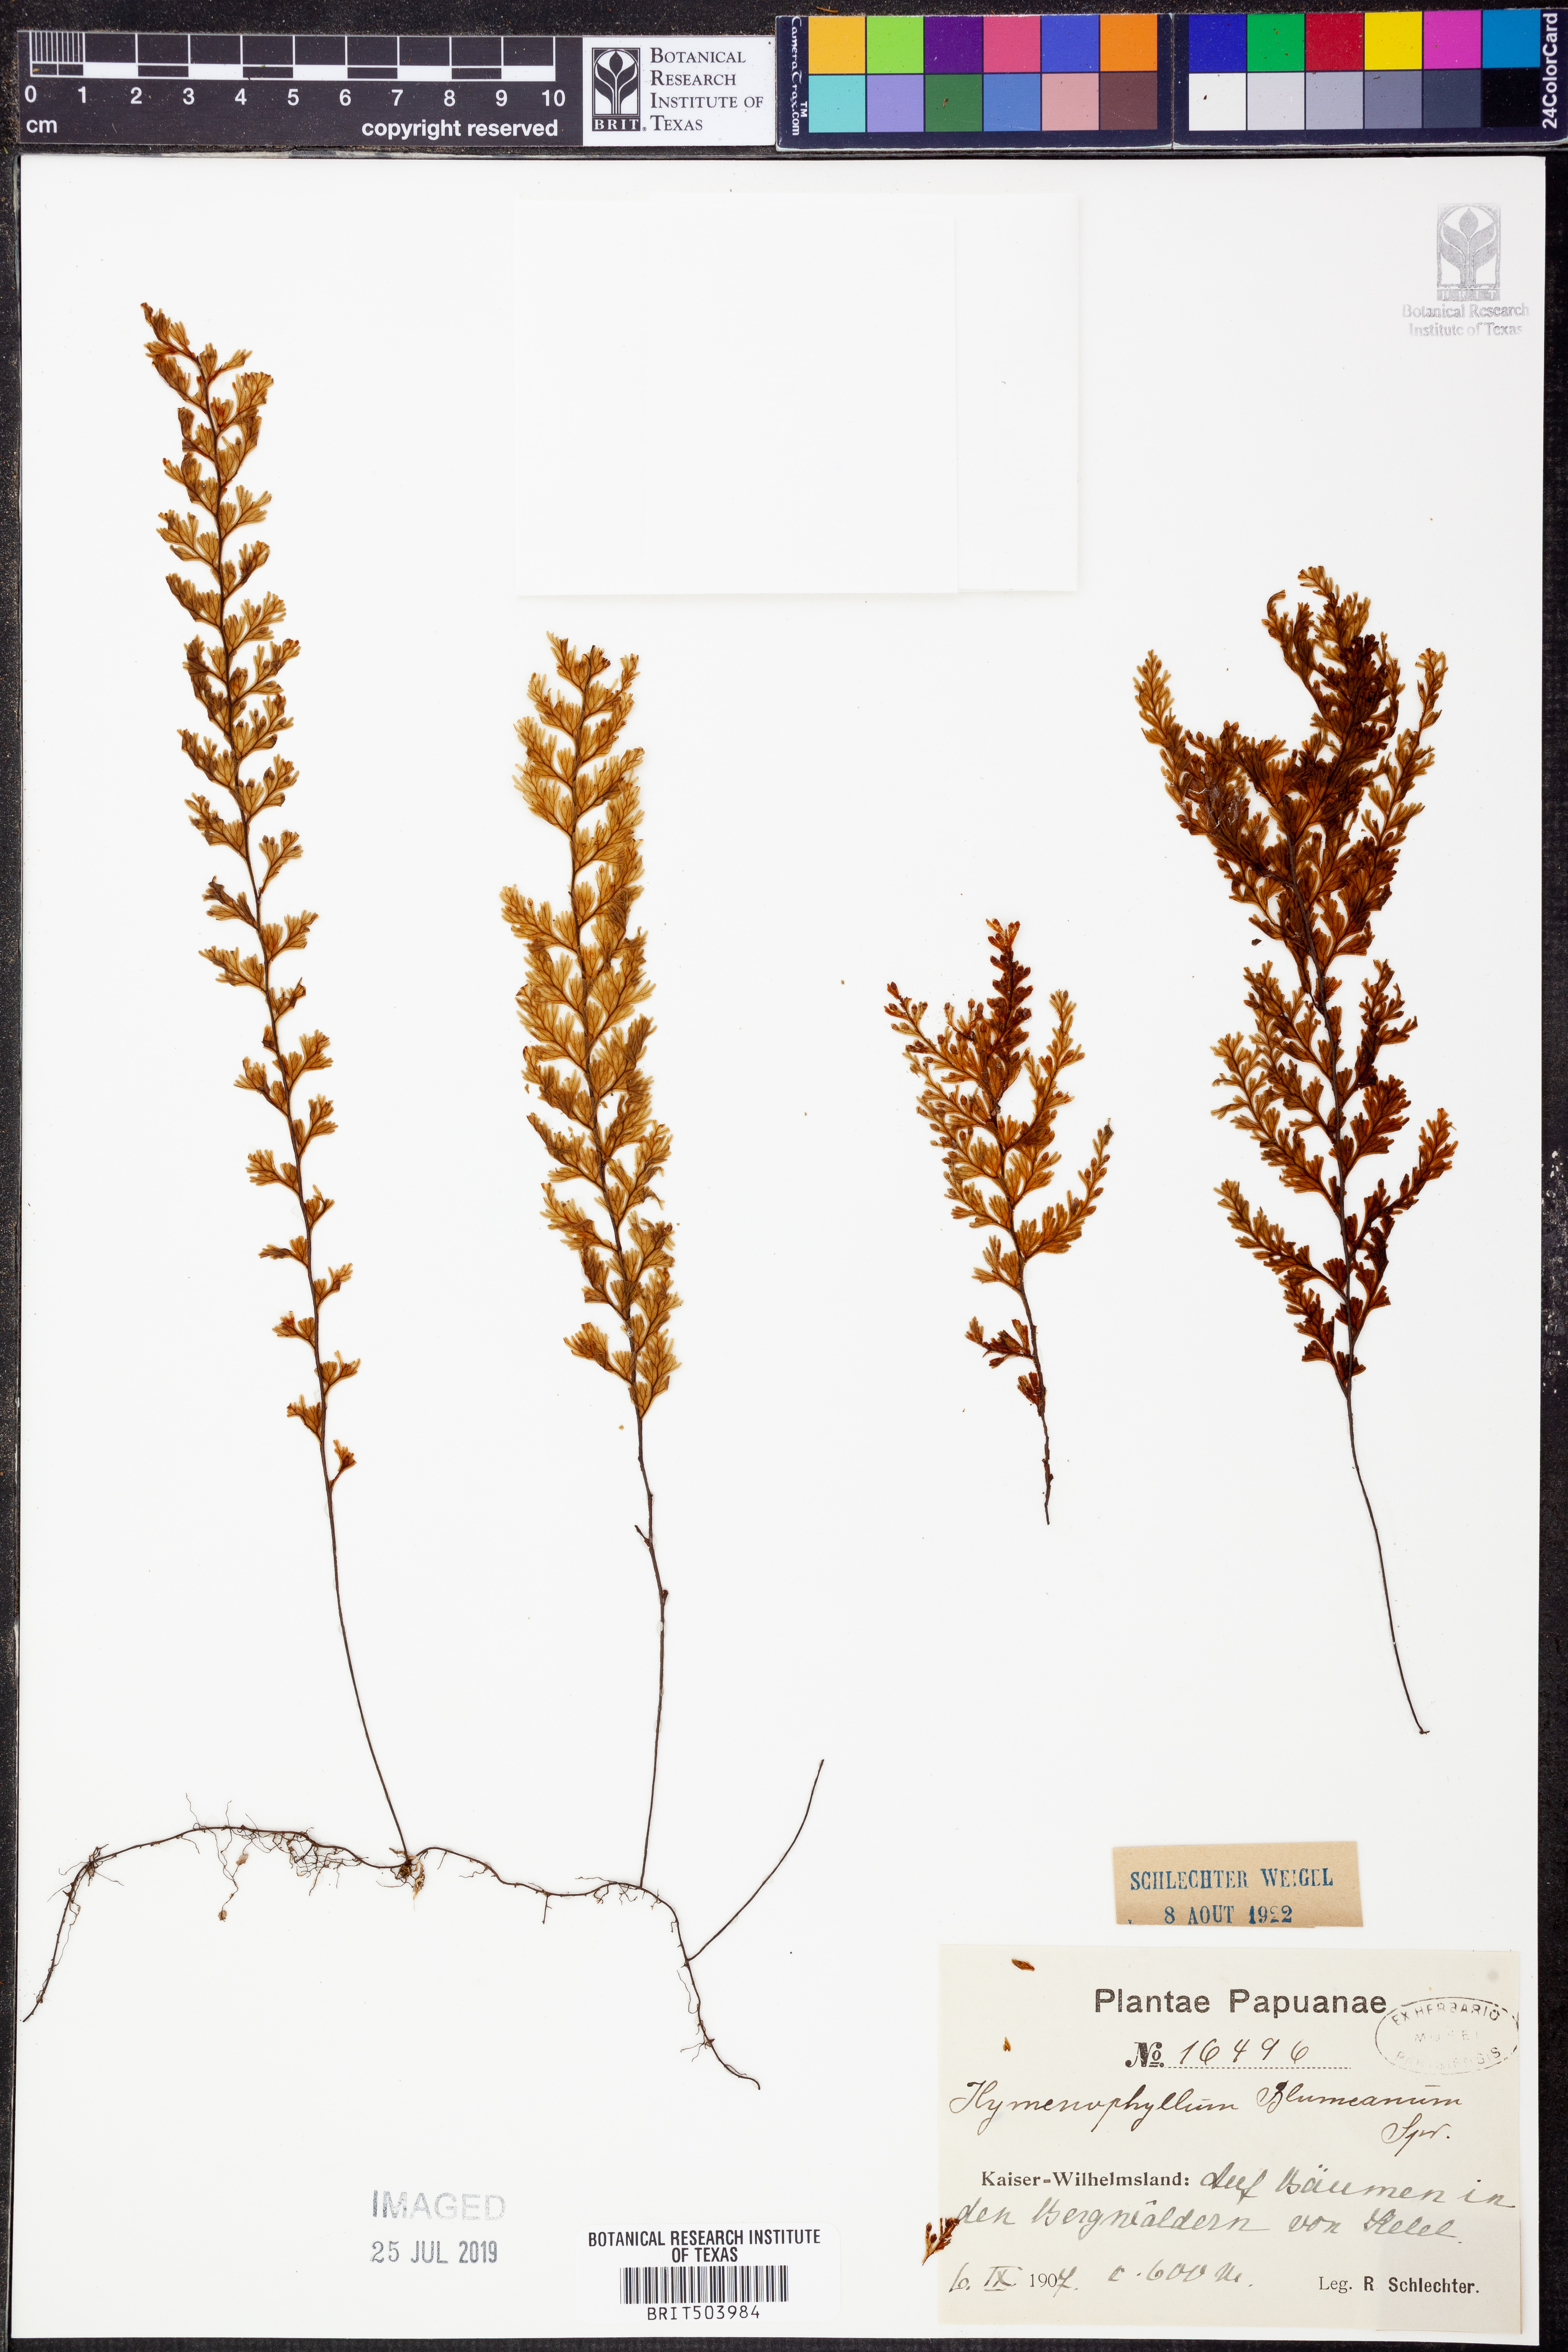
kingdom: Plantae
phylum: Tracheophyta
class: Polypodiopsida
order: Hymenophyllales
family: Hymenophyllaceae
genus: Hymenophyllum
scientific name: Hymenophyllum fumarioides
